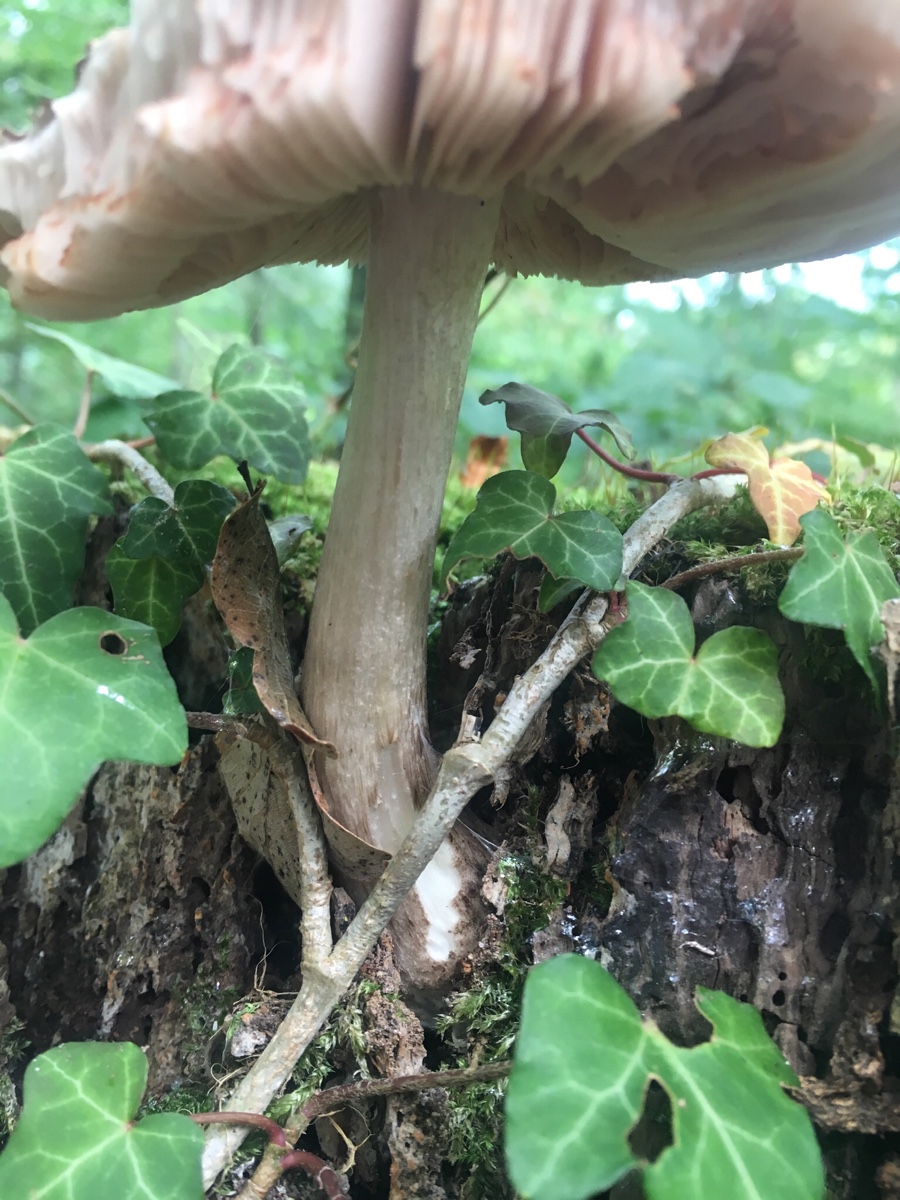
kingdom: Fungi
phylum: Basidiomycota
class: Agaricomycetes
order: Agaricales
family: Pluteaceae
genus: Pluteus
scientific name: Pluteus cervinus
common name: sodfarvet skærmhat
